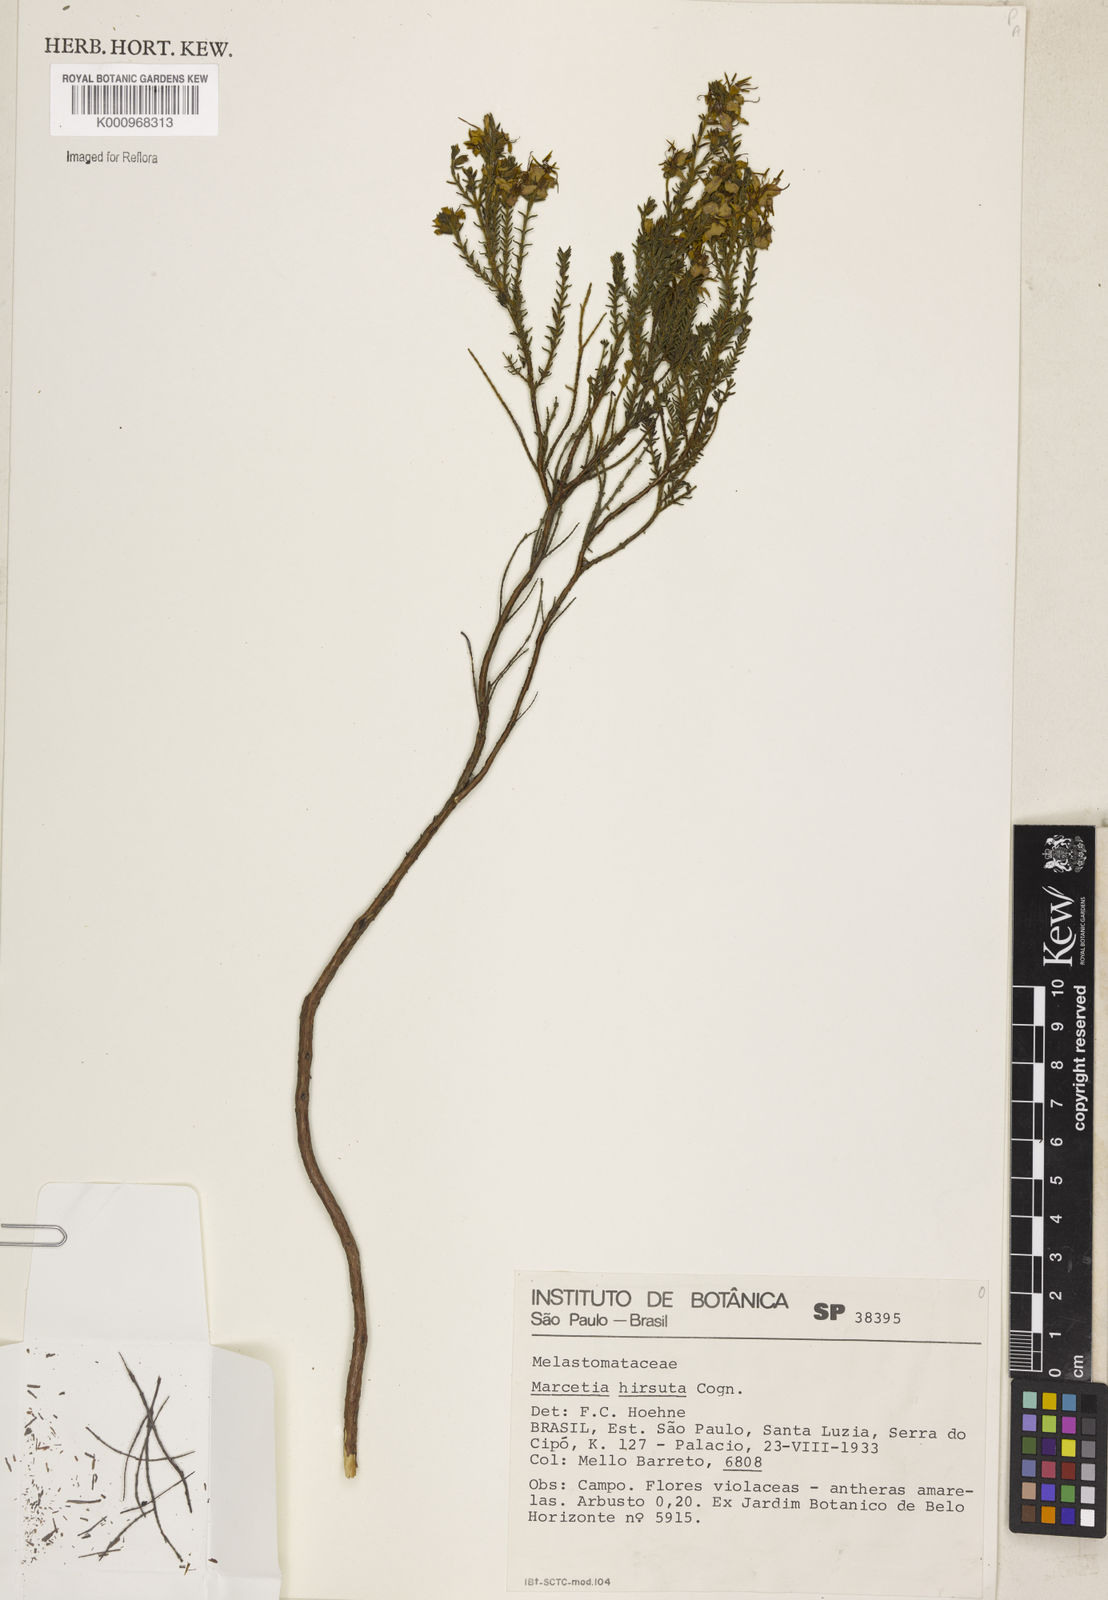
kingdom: Plantae
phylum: Tracheophyta
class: Magnoliopsida
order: Myrtales
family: Melastomataceae
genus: Marcetia
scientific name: Marcetia taxifolia
